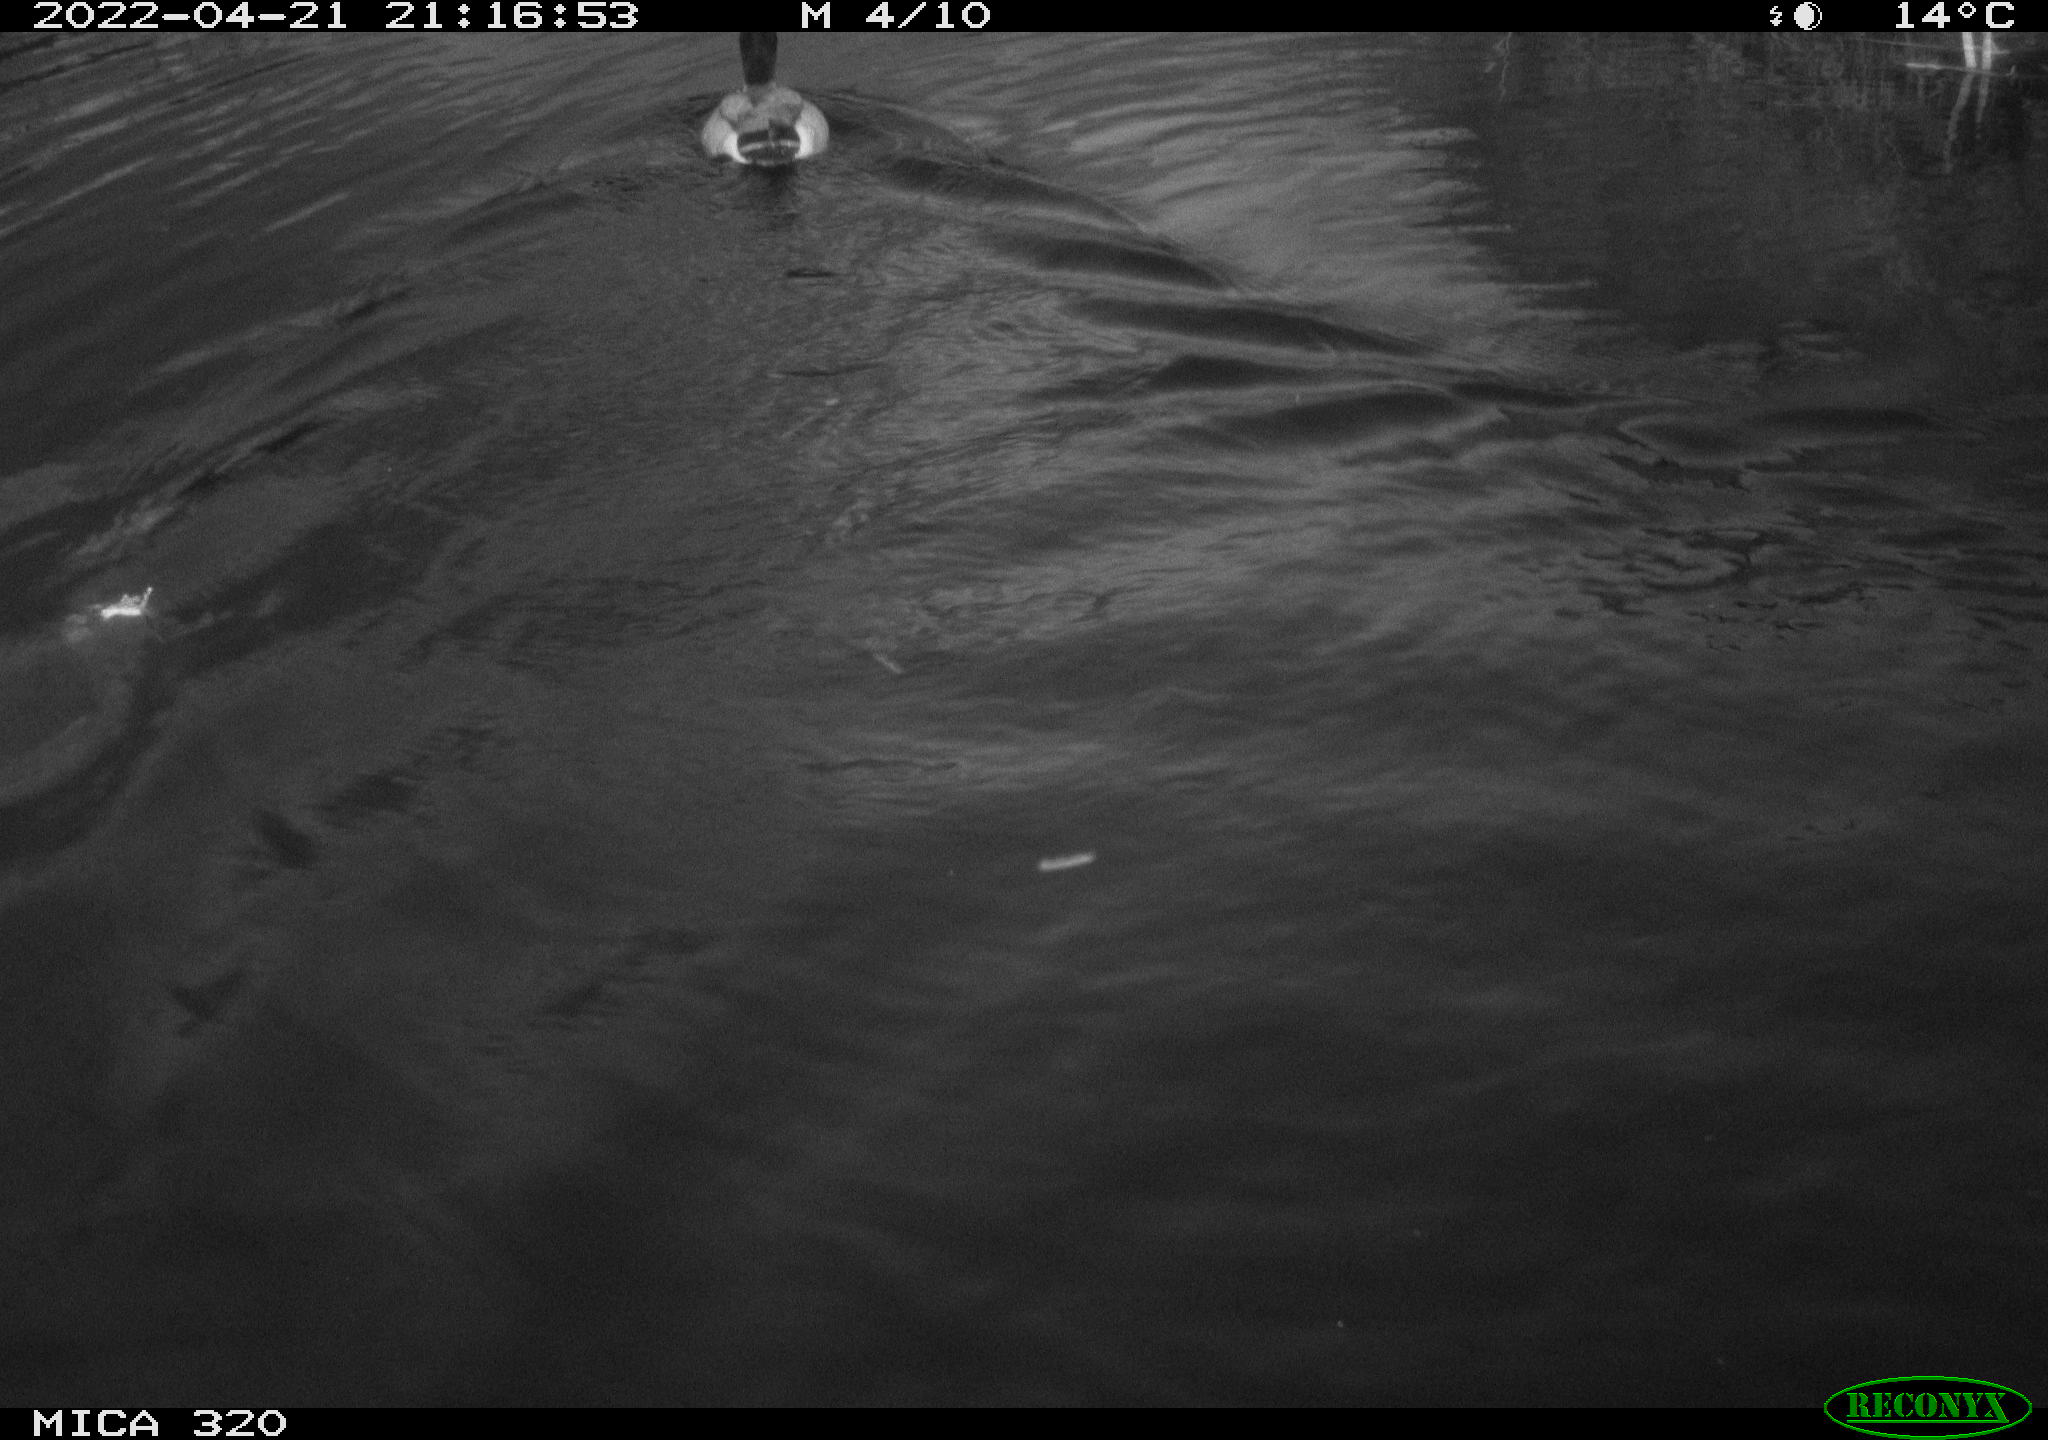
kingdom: Animalia
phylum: Chordata
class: Aves
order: Anseriformes
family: Anatidae
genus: Anas
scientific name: Anas platyrhynchos
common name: Mallard
